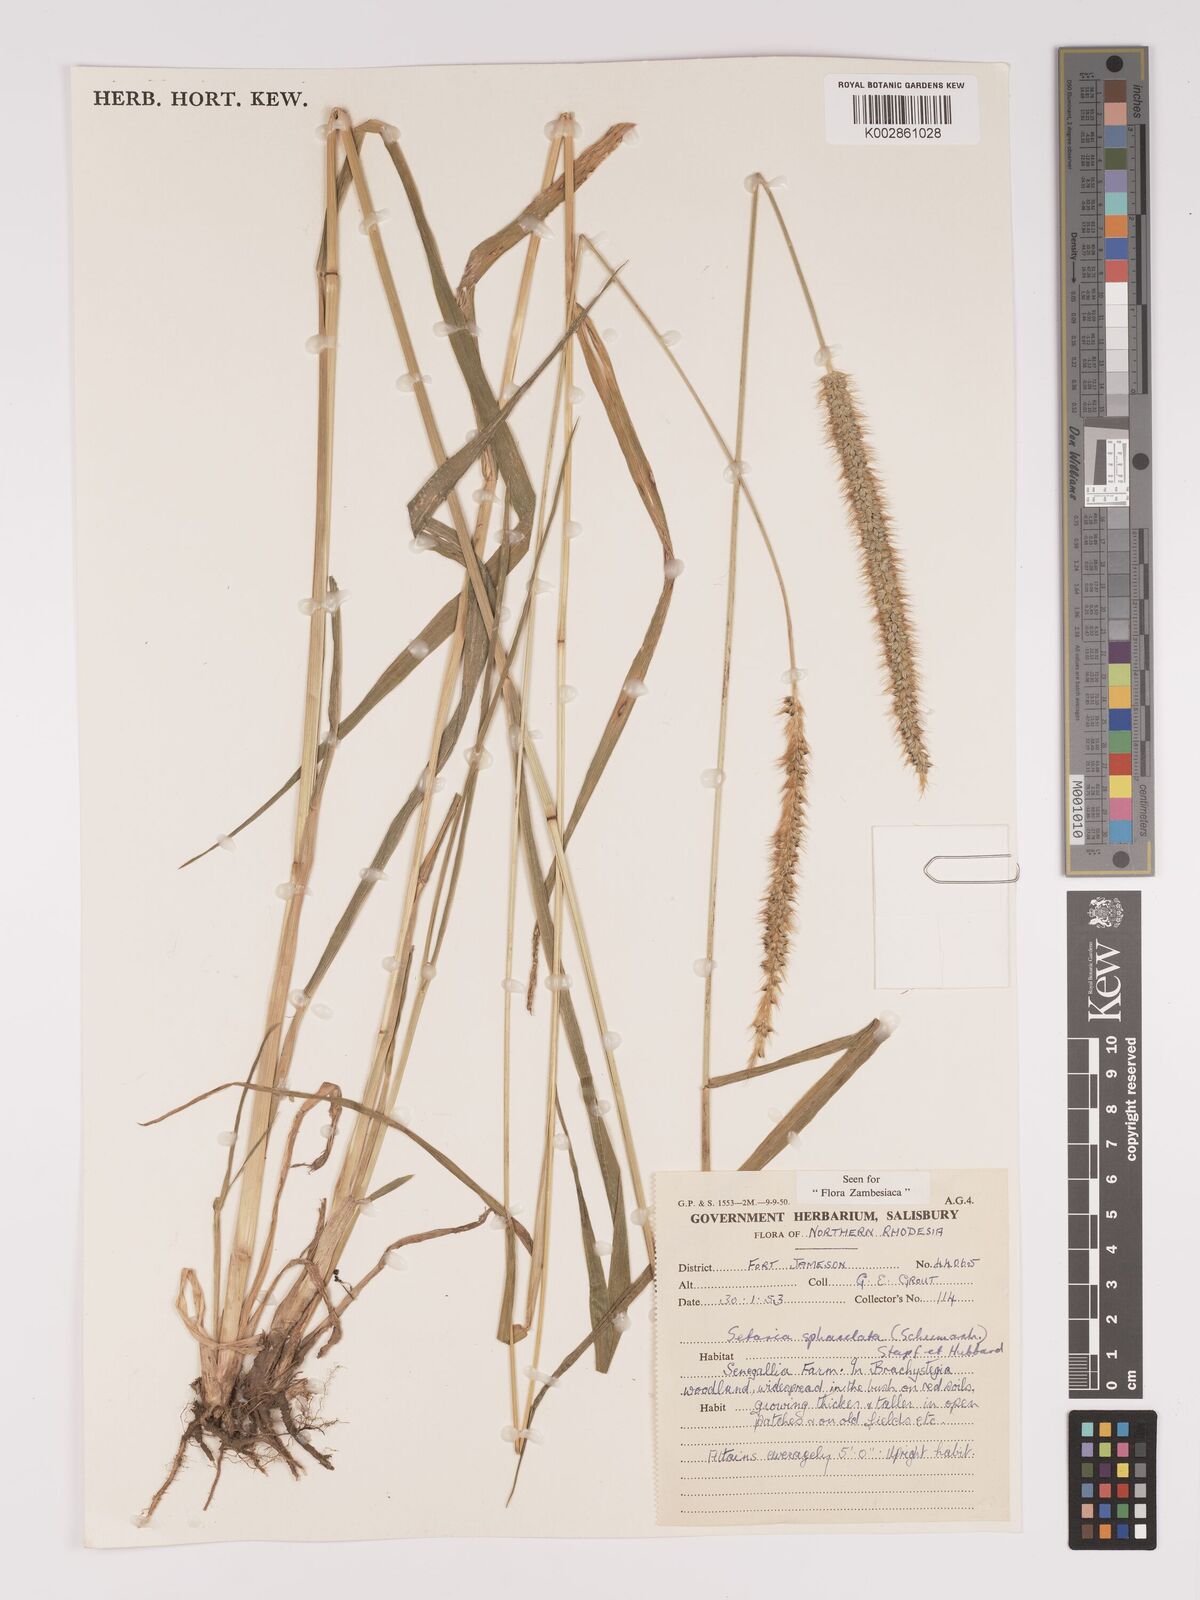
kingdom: Plantae
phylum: Tracheophyta
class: Liliopsida
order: Poales
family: Poaceae
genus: Setaria
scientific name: Setaria sphacelata
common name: African bristlegrass
